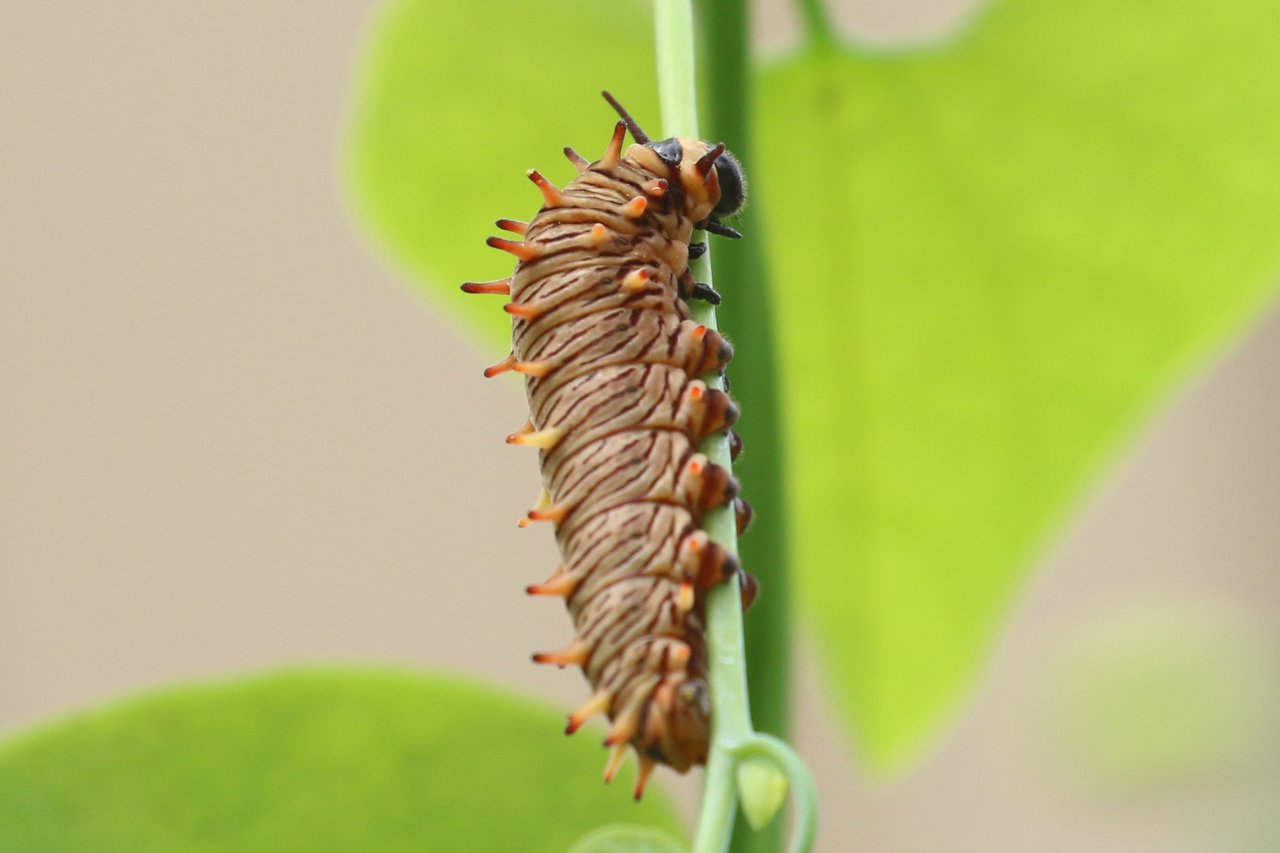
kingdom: Animalia
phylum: Arthropoda
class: Insecta
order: Lepidoptera
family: Papilionidae
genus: Battus
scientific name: Battus polydamas
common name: Polydamas Swallowtail
